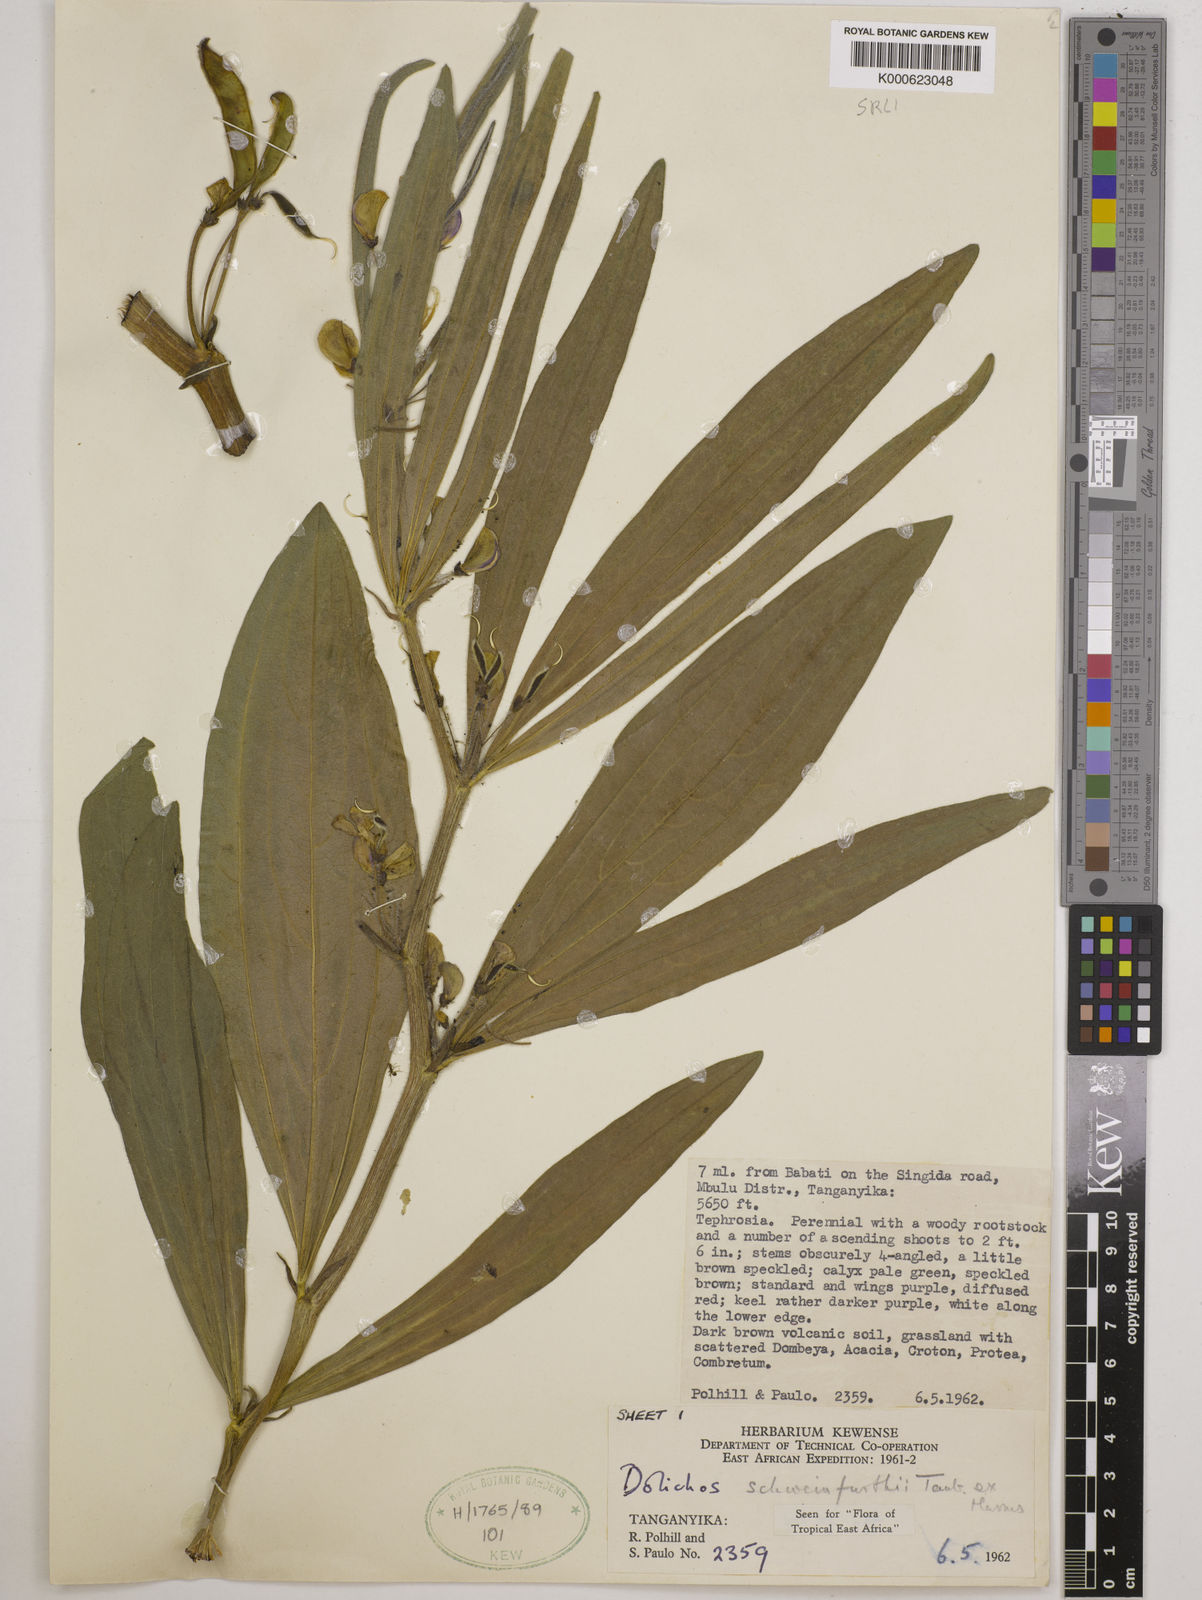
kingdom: Plantae
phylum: Tracheophyta
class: Magnoliopsida
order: Fabales
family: Fabaceae
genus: Dolichos
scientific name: Dolichos
